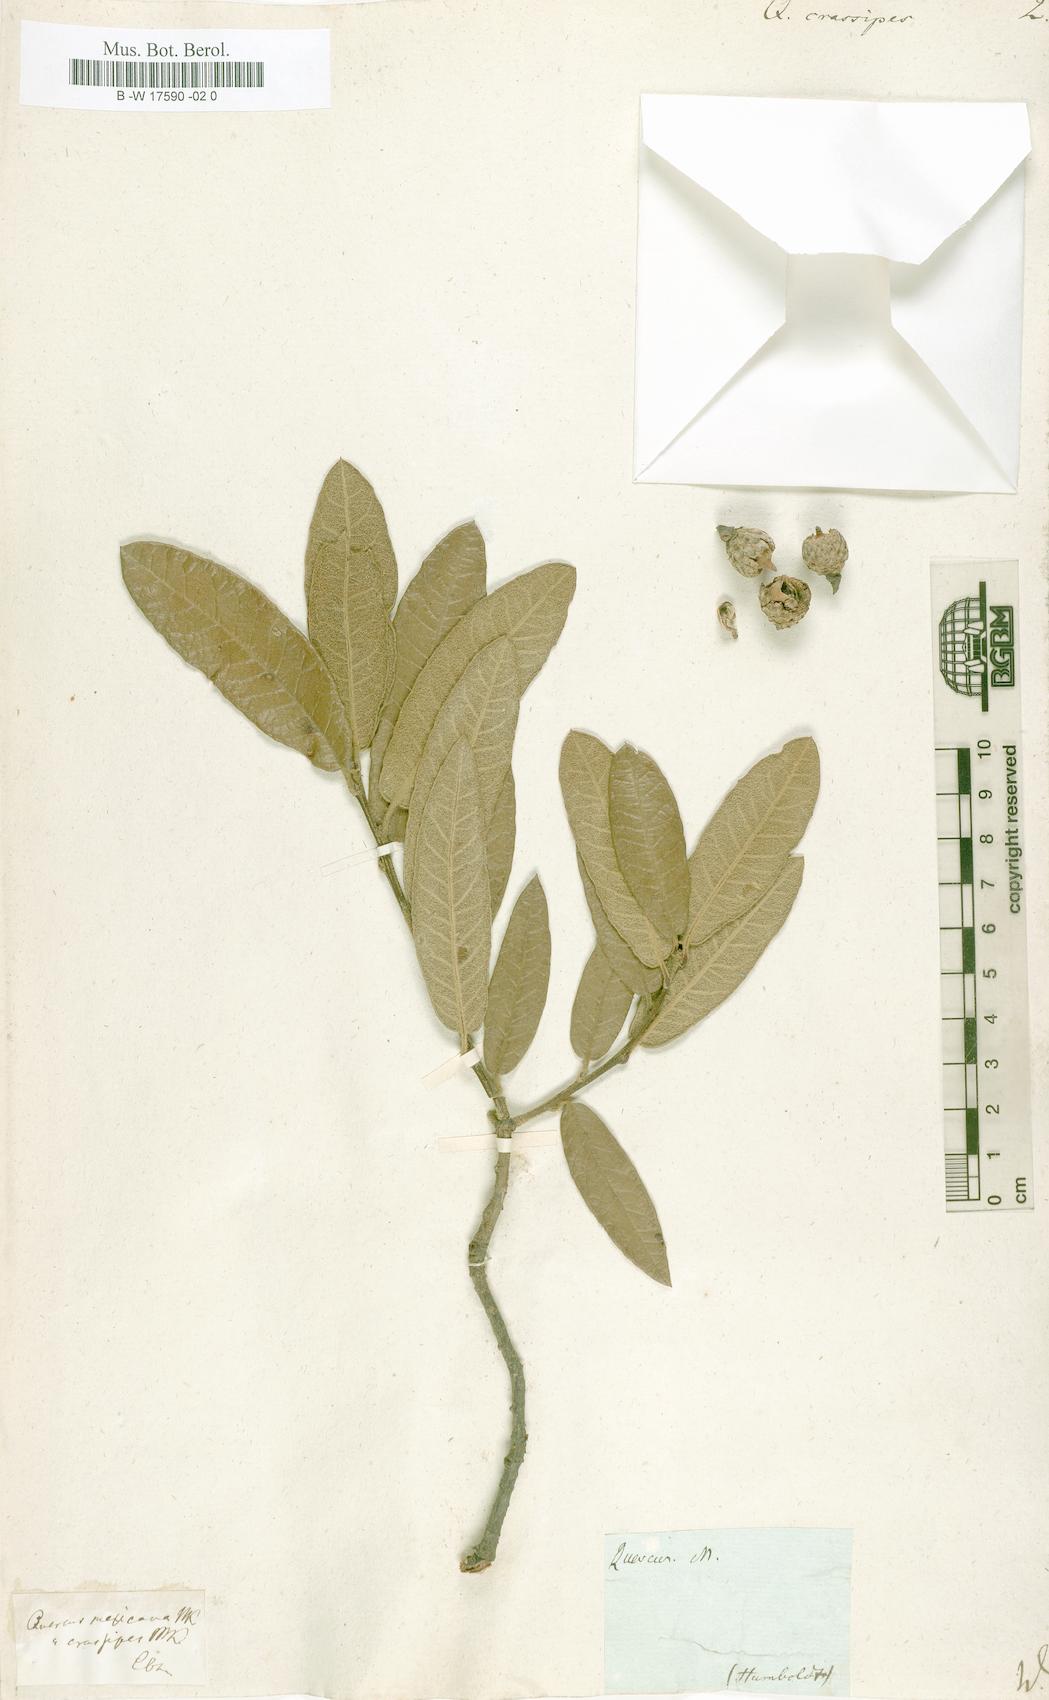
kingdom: Plantae
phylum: Tracheophyta
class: Magnoliopsida
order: Fagales
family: Fagaceae
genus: Quercus
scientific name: Quercus crassipes
